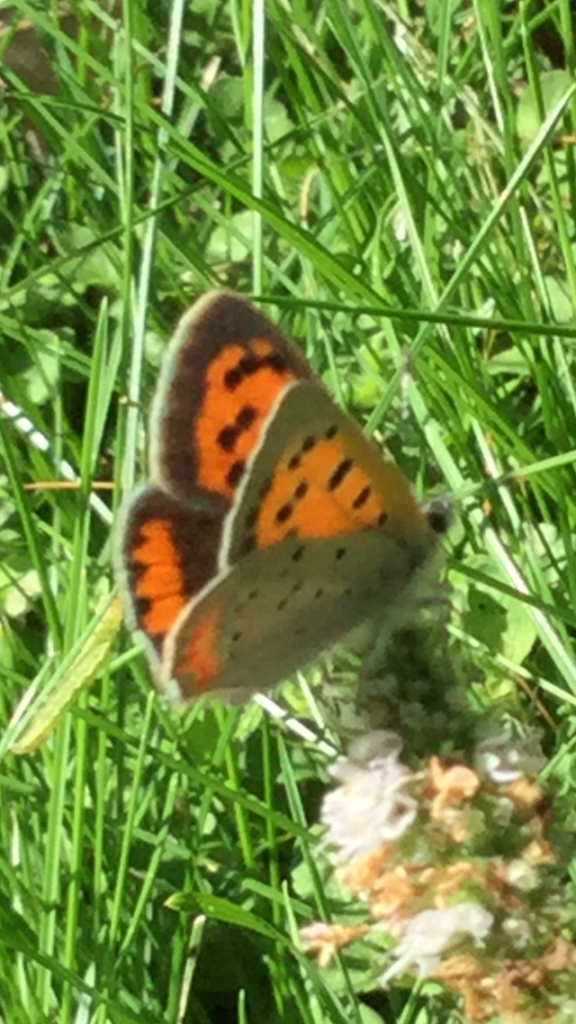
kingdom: Animalia
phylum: Arthropoda
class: Insecta
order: Lepidoptera
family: Lycaenidae
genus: Lycaena
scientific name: Lycaena phlaeas
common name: American Copper
